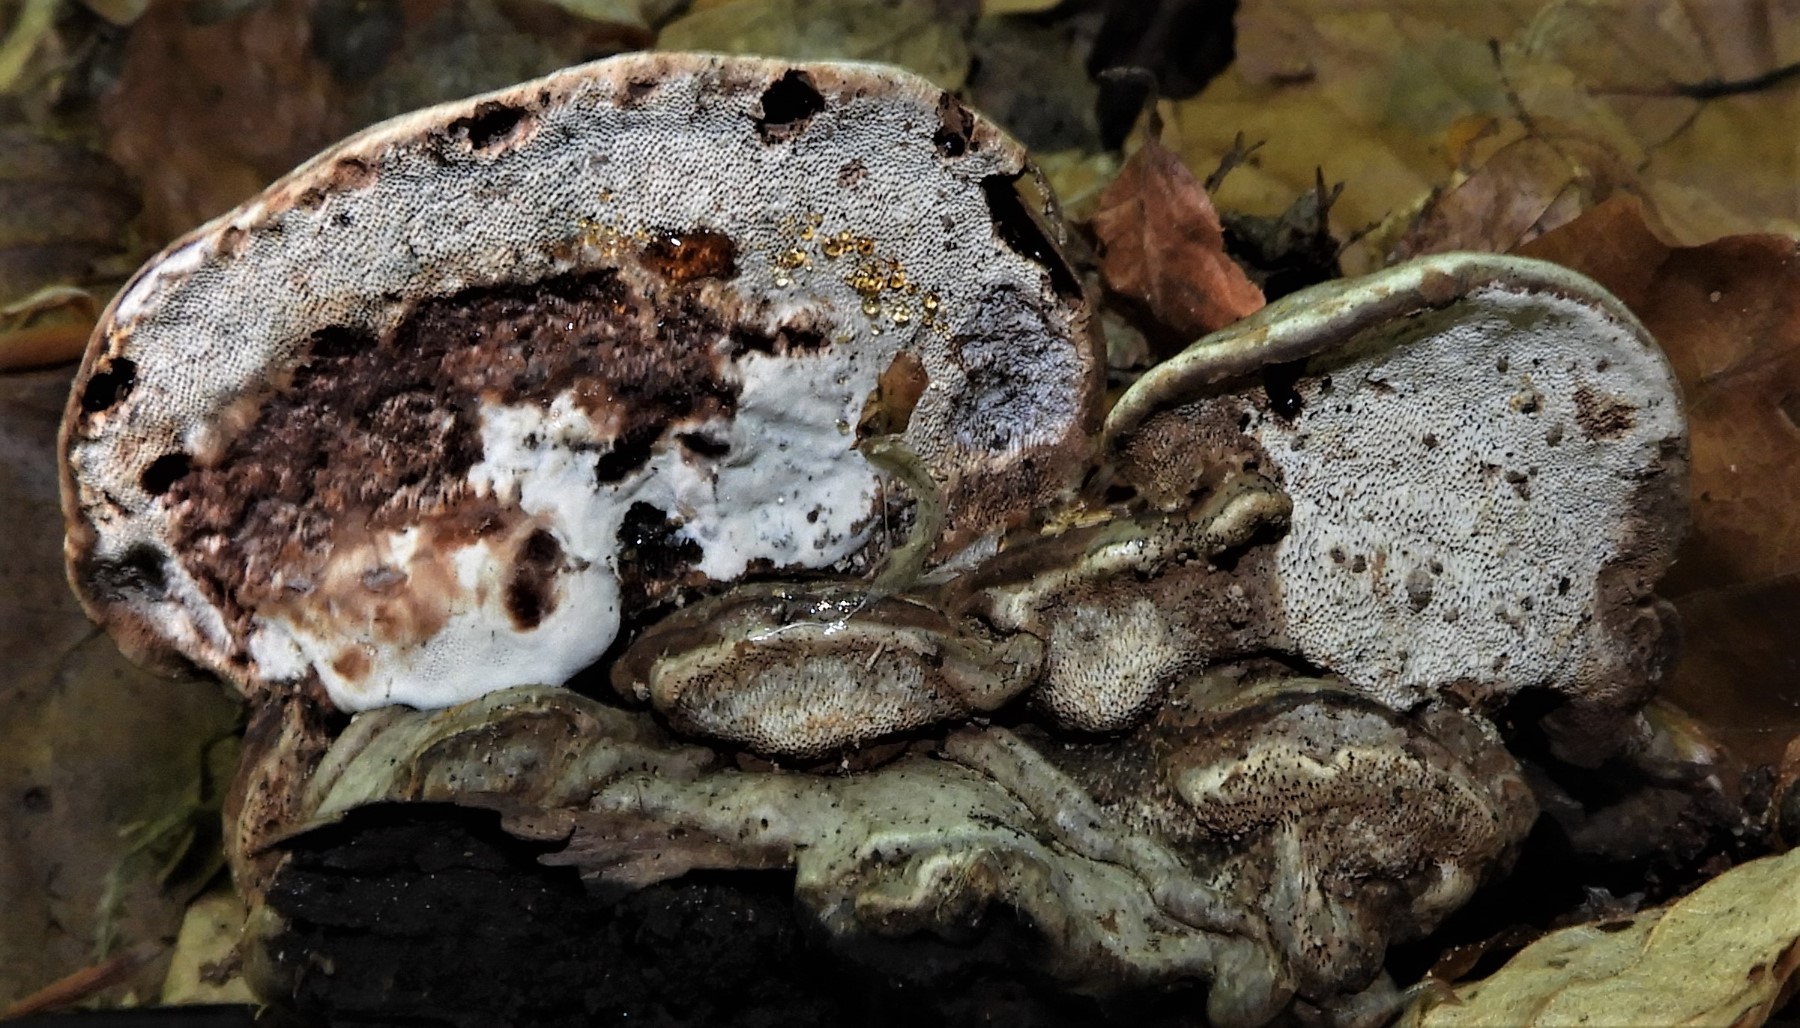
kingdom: Fungi
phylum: Basidiomycota
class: Agaricomycetes
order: Polyporales
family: Polyporaceae
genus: Ganoderma
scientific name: Ganoderma applanatum
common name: flad lakporesvamp
